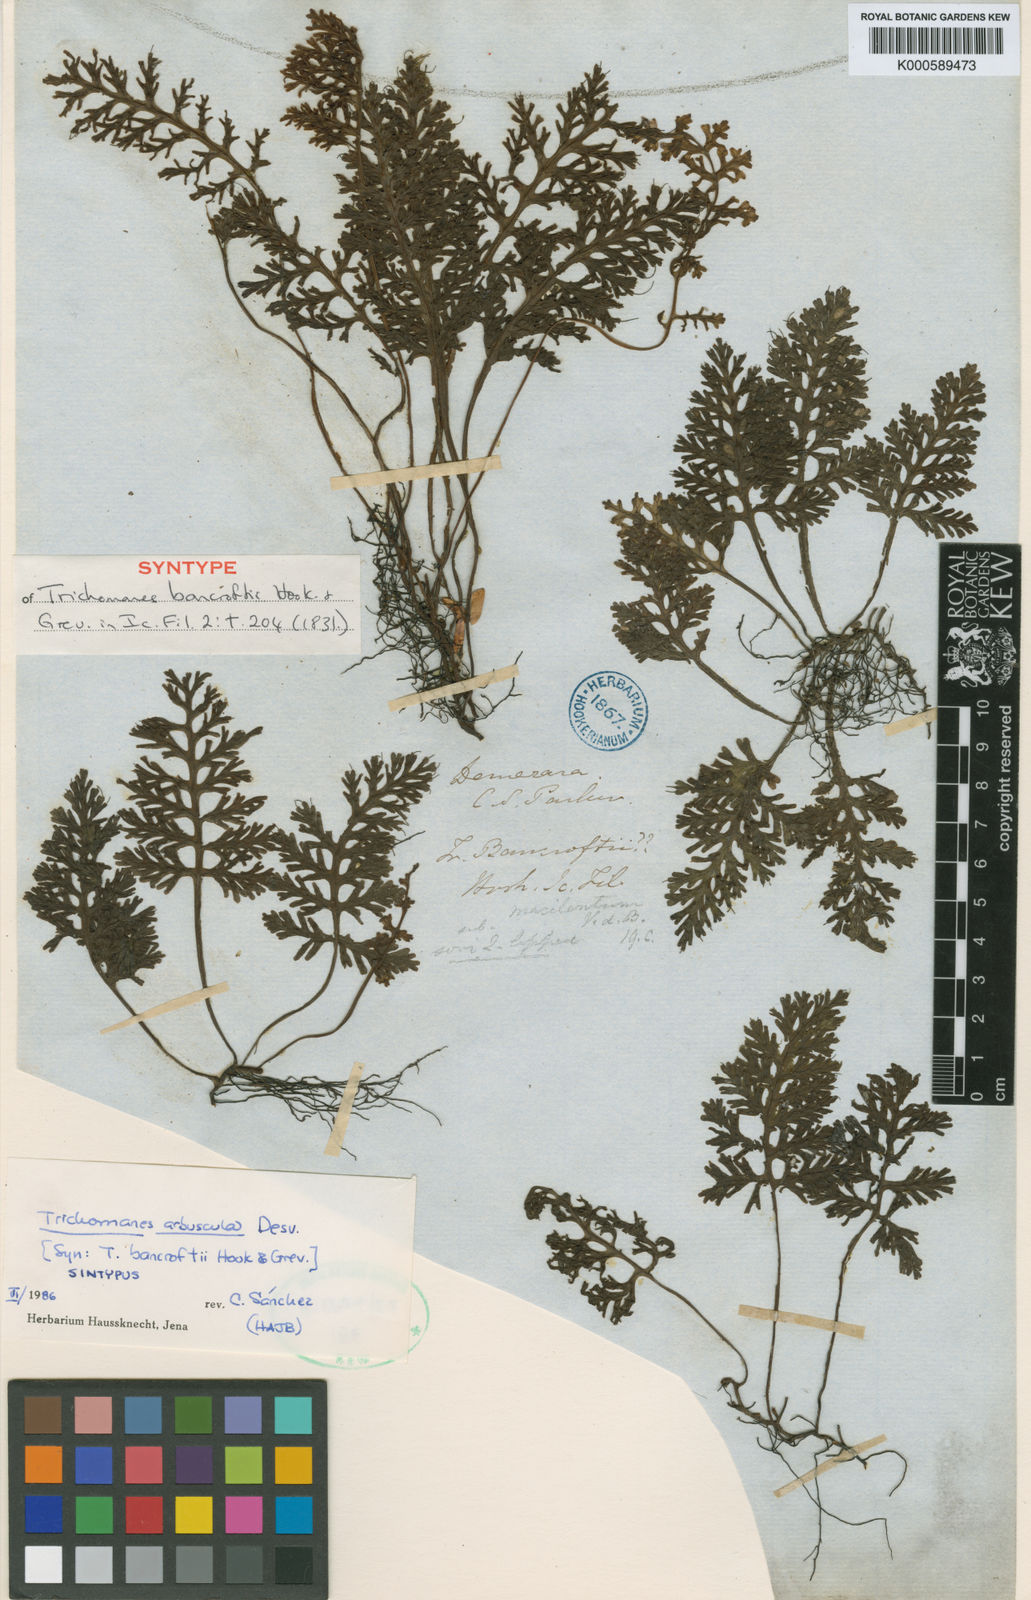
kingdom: Plantae
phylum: Tracheophyta
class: Polypodiopsida
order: Hymenophyllales
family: Hymenophyllaceae
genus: Trichomanes
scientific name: Trichomanes arbuscula
